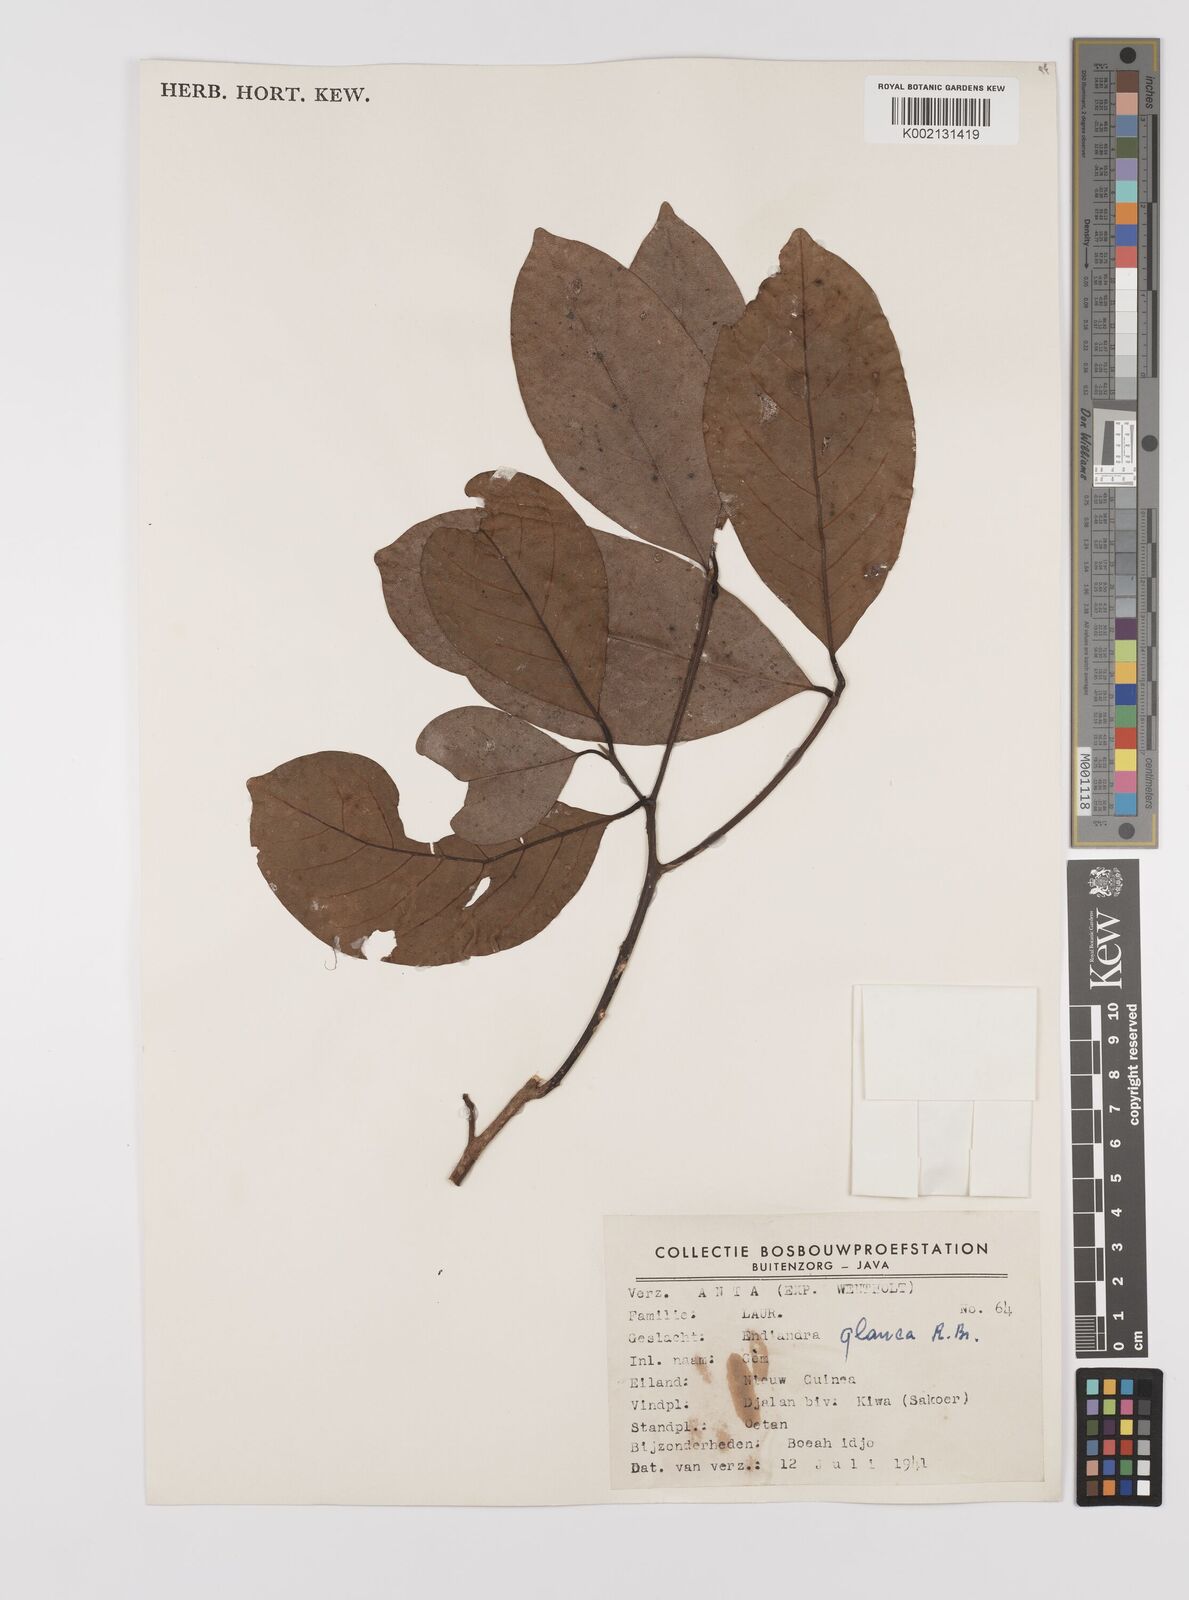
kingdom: Plantae
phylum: Tracheophyta
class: Magnoliopsida
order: Laurales
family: Lauraceae
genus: Endiandra
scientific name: Endiandra glauca
